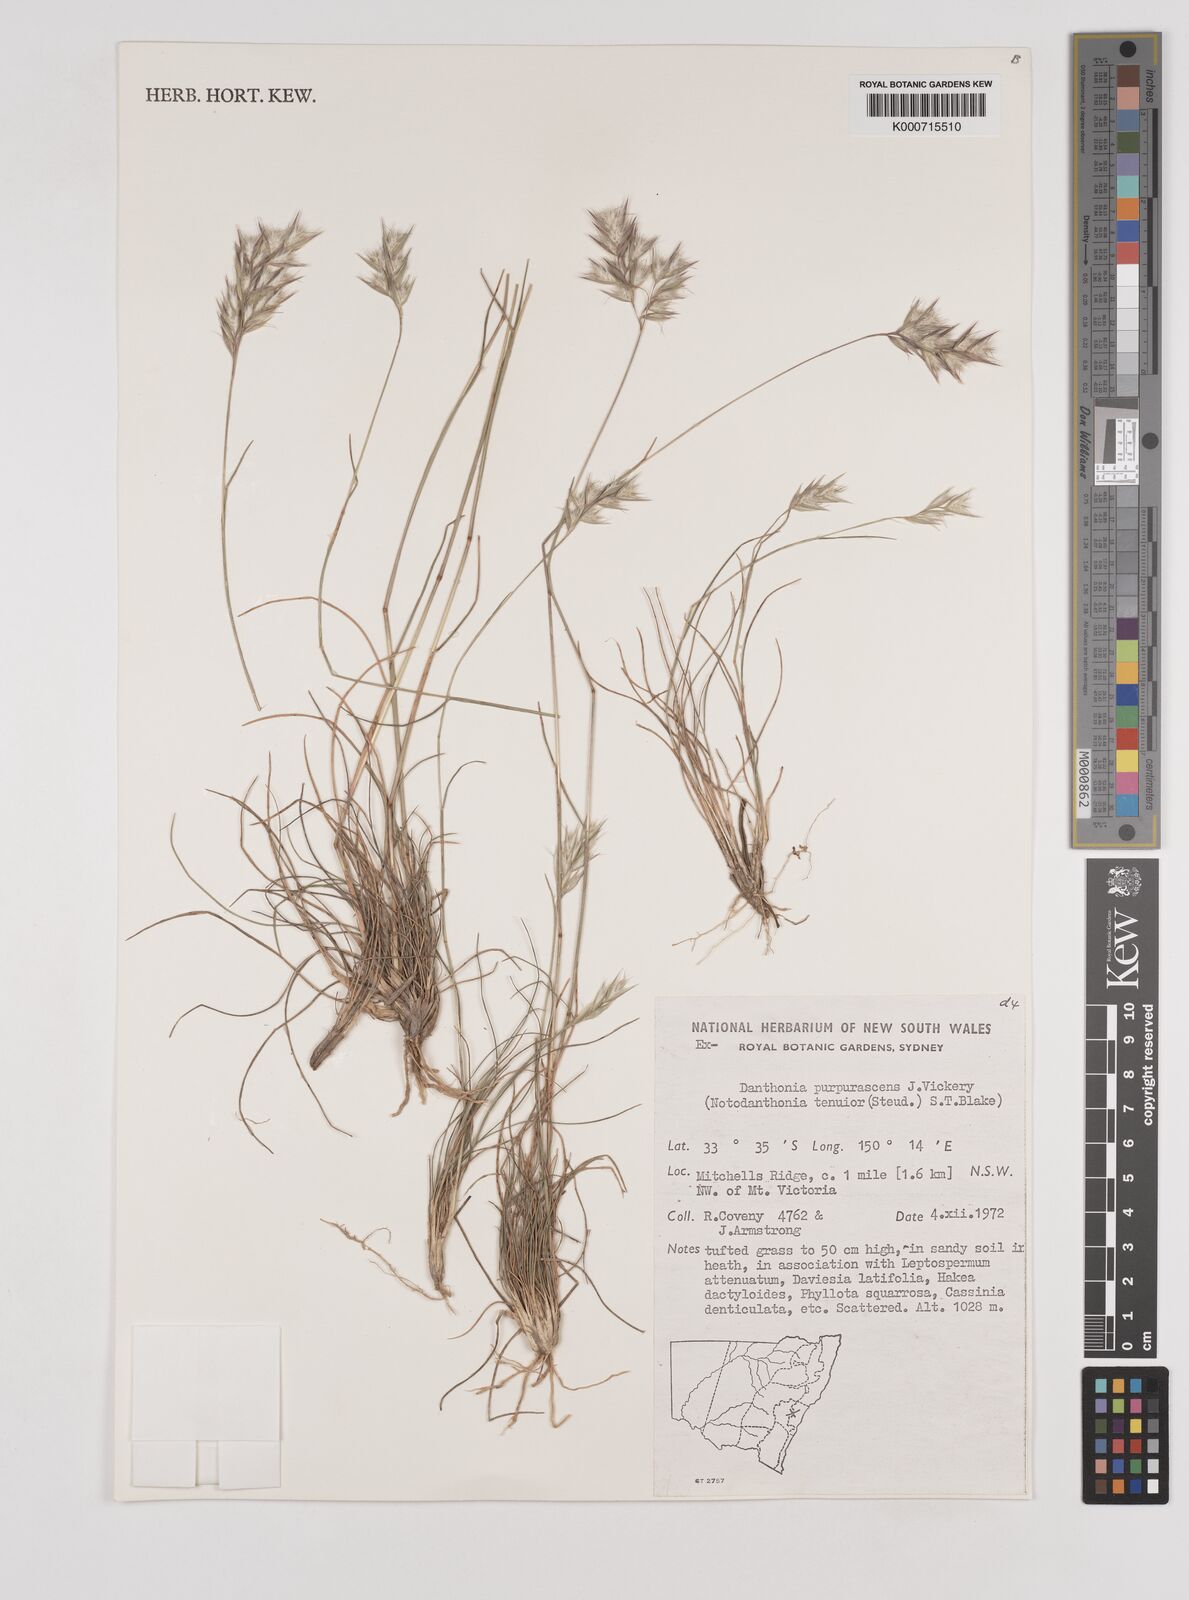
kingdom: Plantae
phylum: Tracheophyta
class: Liliopsida
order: Poales
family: Poaceae
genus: Rytidosperma
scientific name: Rytidosperma tenuius
